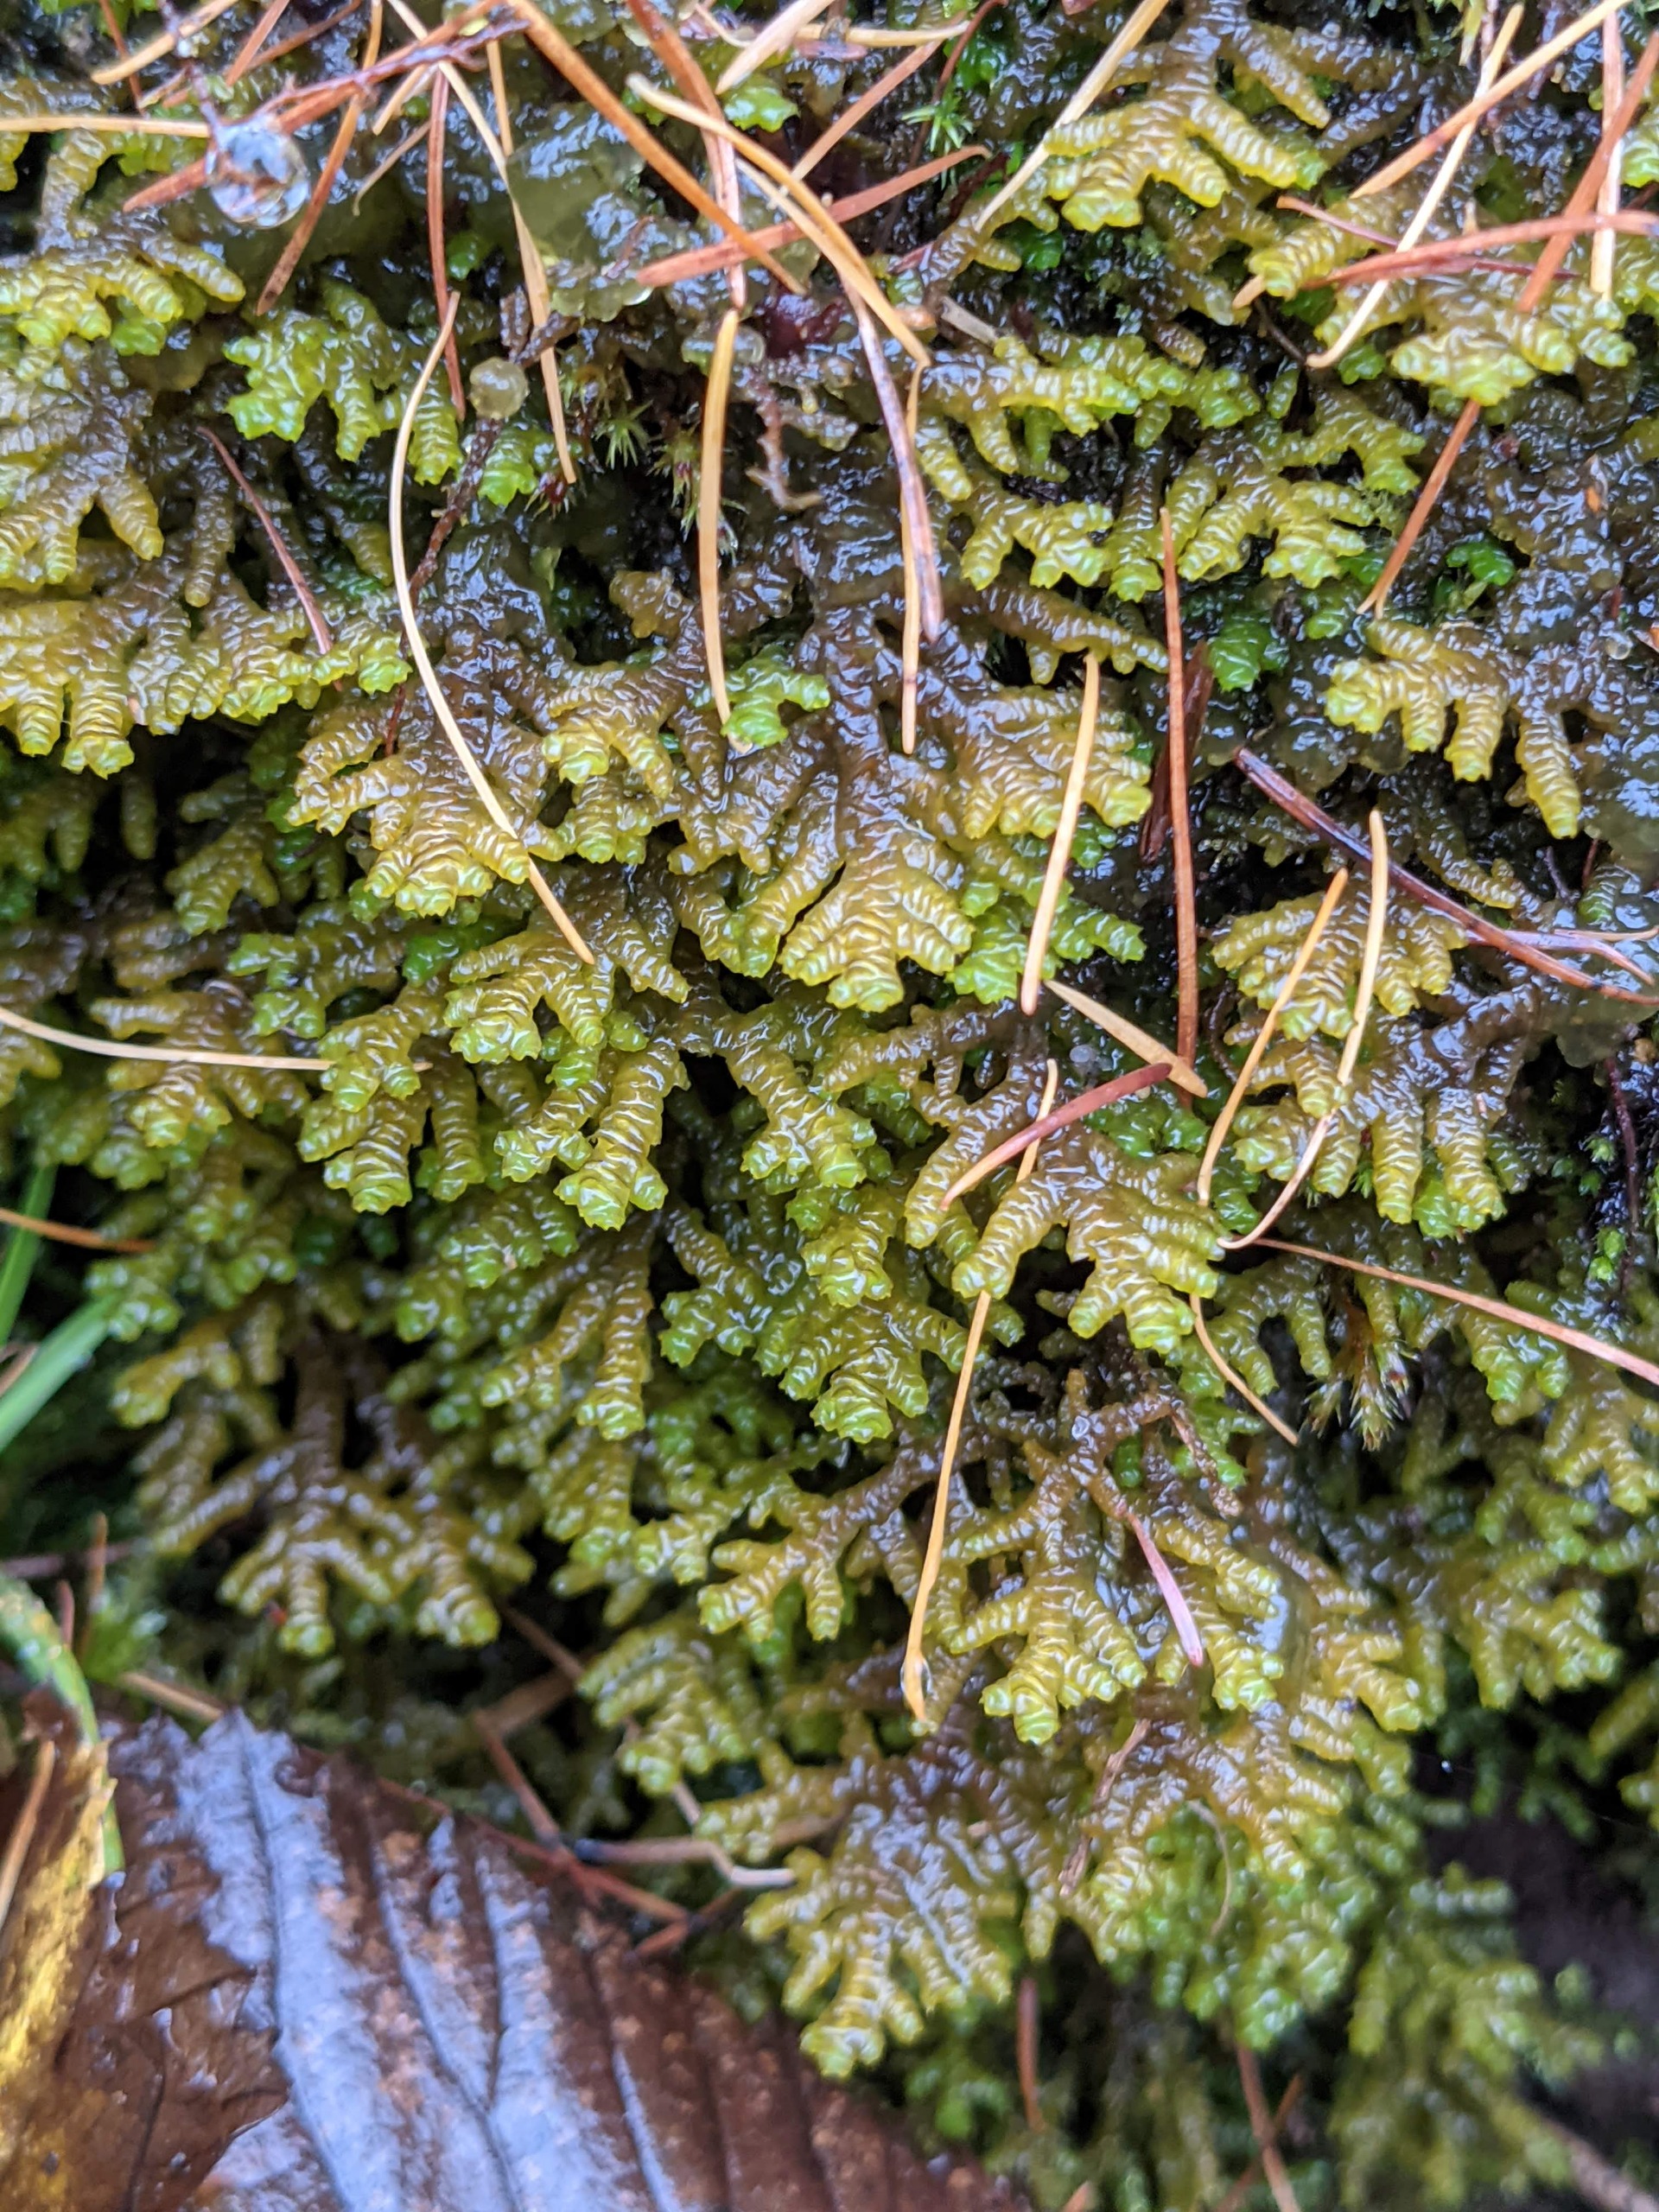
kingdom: Plantae
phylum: Marchantiophyta
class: Jungermanniopsida
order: Porellales
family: Porellaceae
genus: Porella
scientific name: Porella platyphylla
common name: Almindelig skælryg
